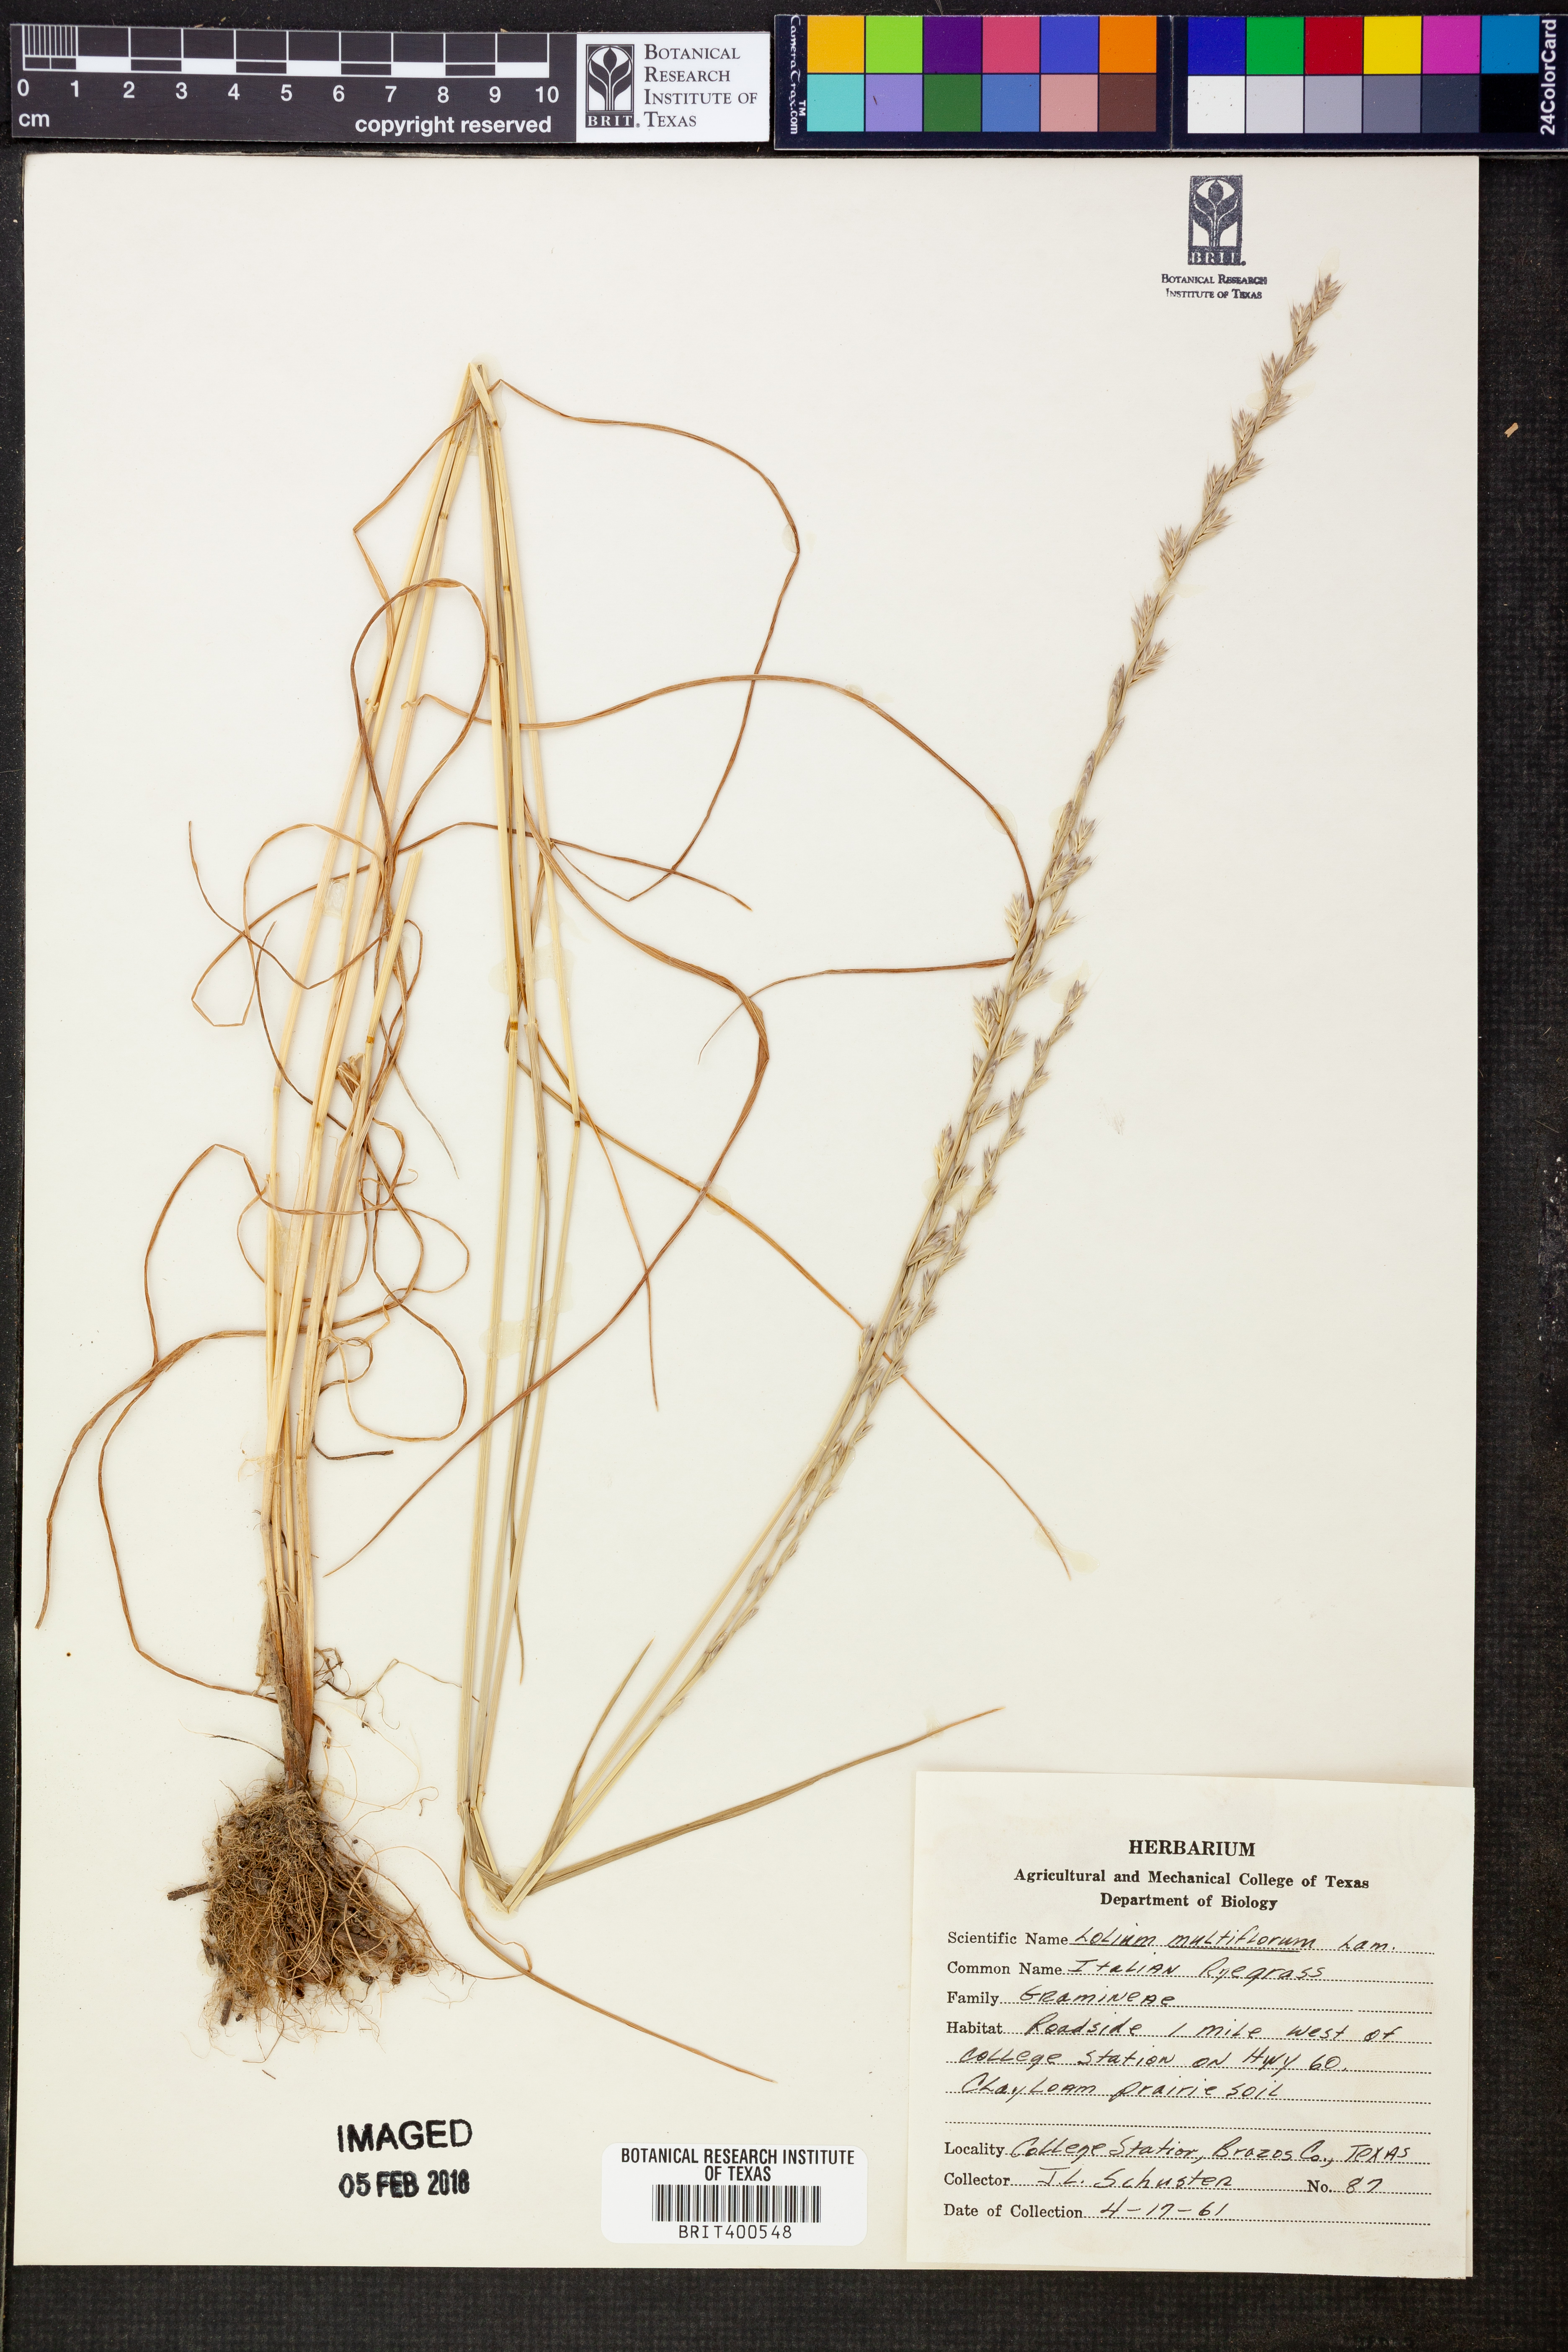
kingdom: Plantae
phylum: Tracheophyta
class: Liliopsida
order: Poales
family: Poaceae
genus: Lolium
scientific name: Lolium multiflorum
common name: Annual ryegrass
